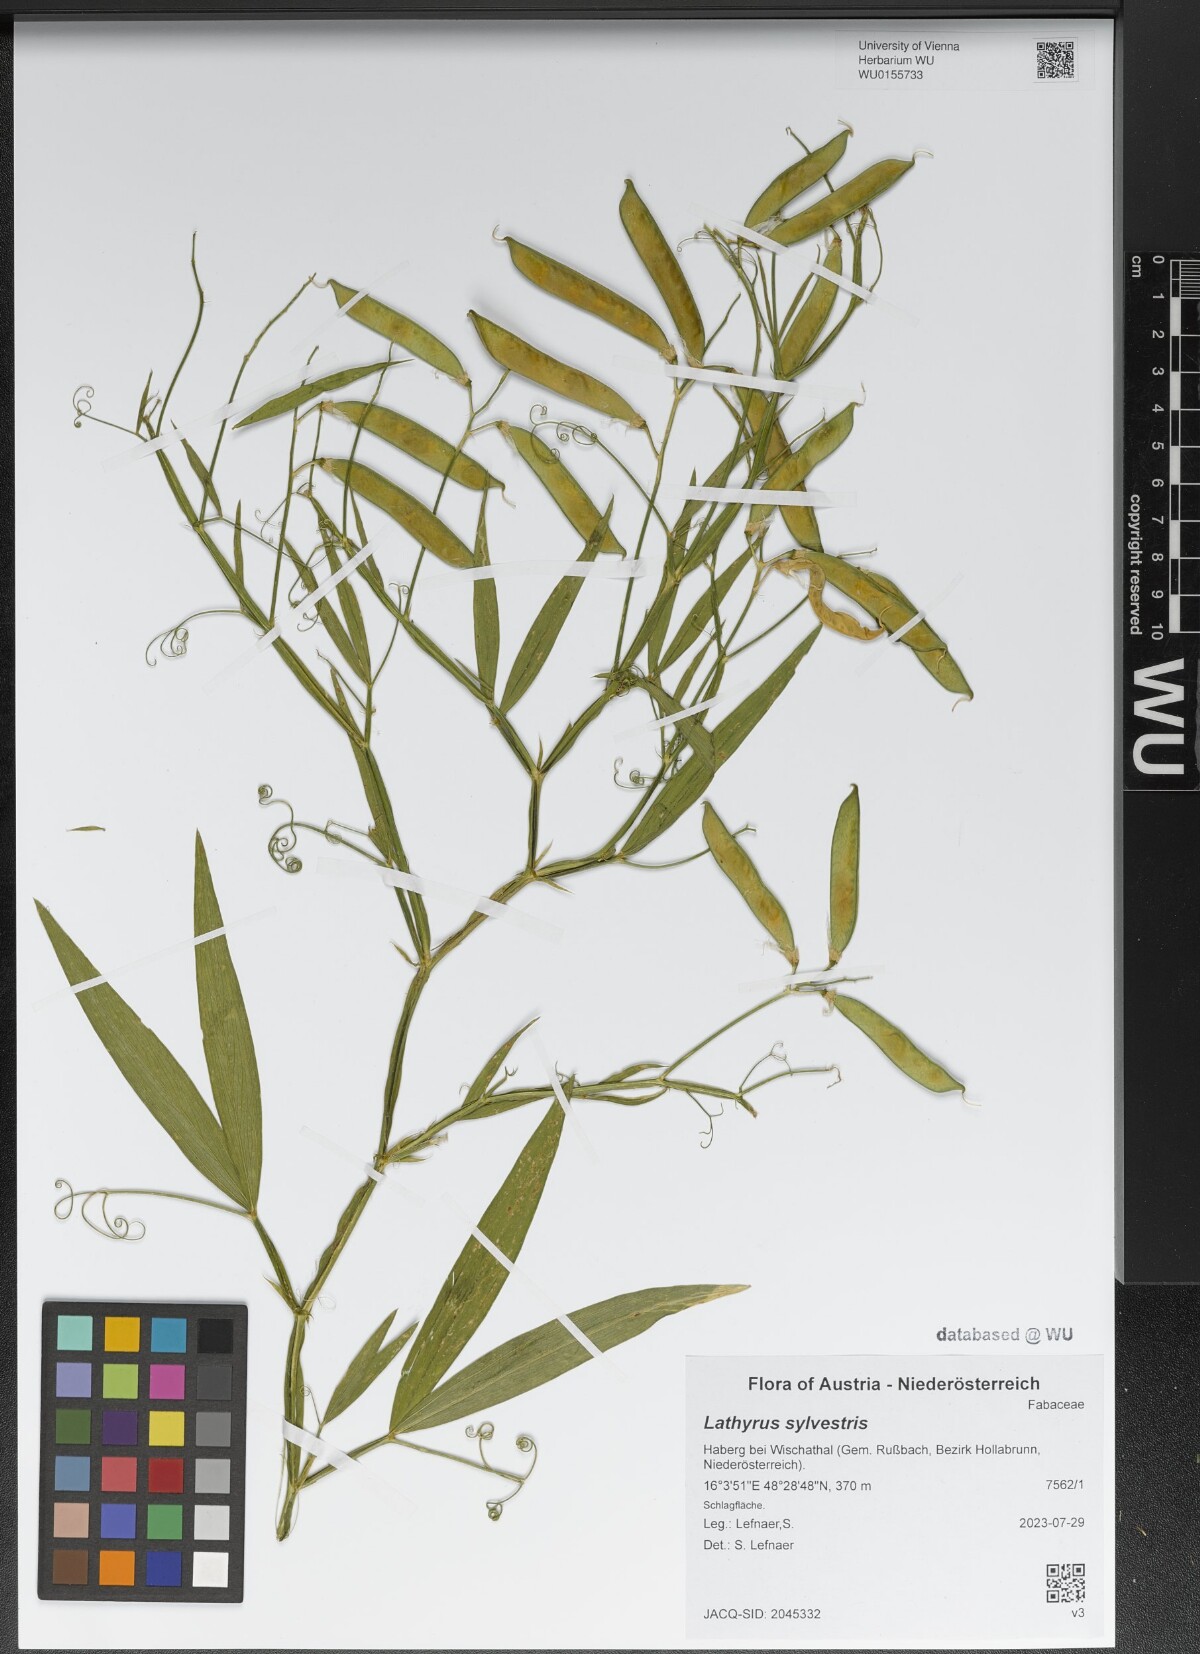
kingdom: Plantae
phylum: Tracheophyta
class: Magnoliopsida
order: Fabales
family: Fabaceae
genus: Lathyrus
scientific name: Lathyrus sylvestris
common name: Flat pea
